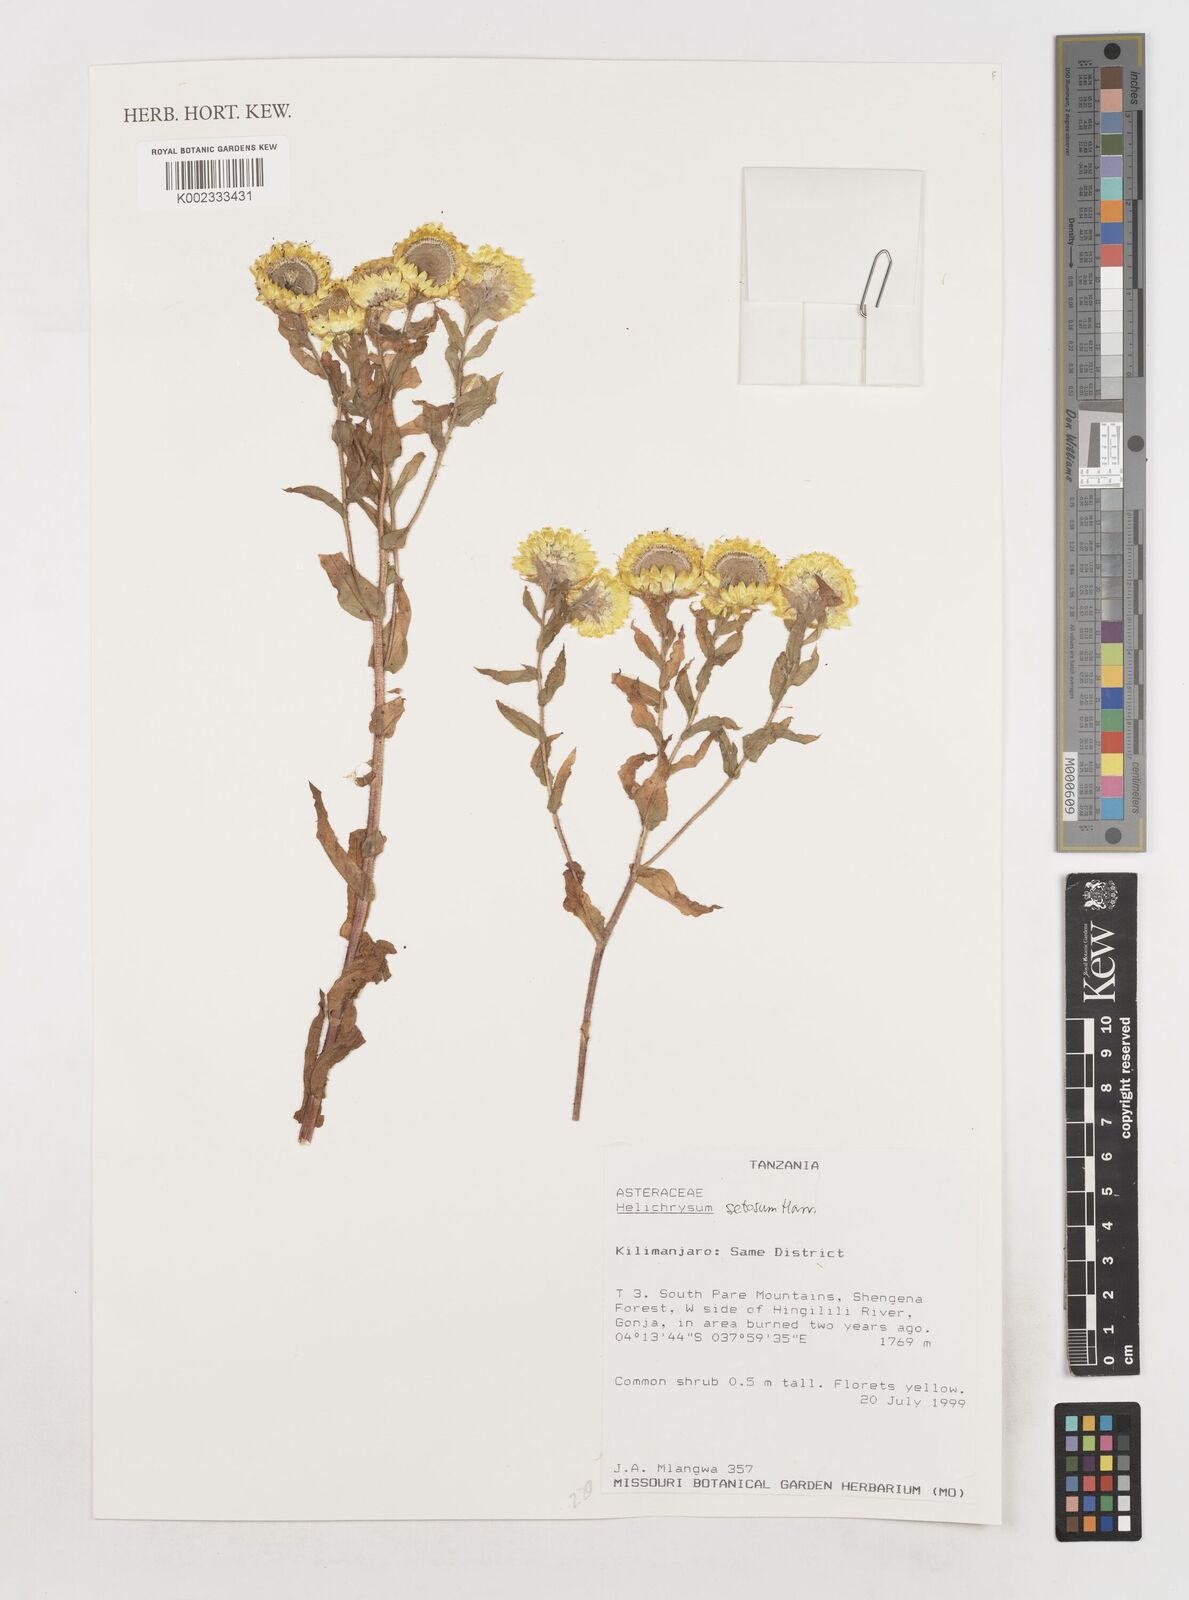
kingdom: Plantae
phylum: Tracheophyta
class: Magnoliopsida
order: Asterales
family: Asteraceae
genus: Helichrysum
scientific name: Helichrysum setosum
